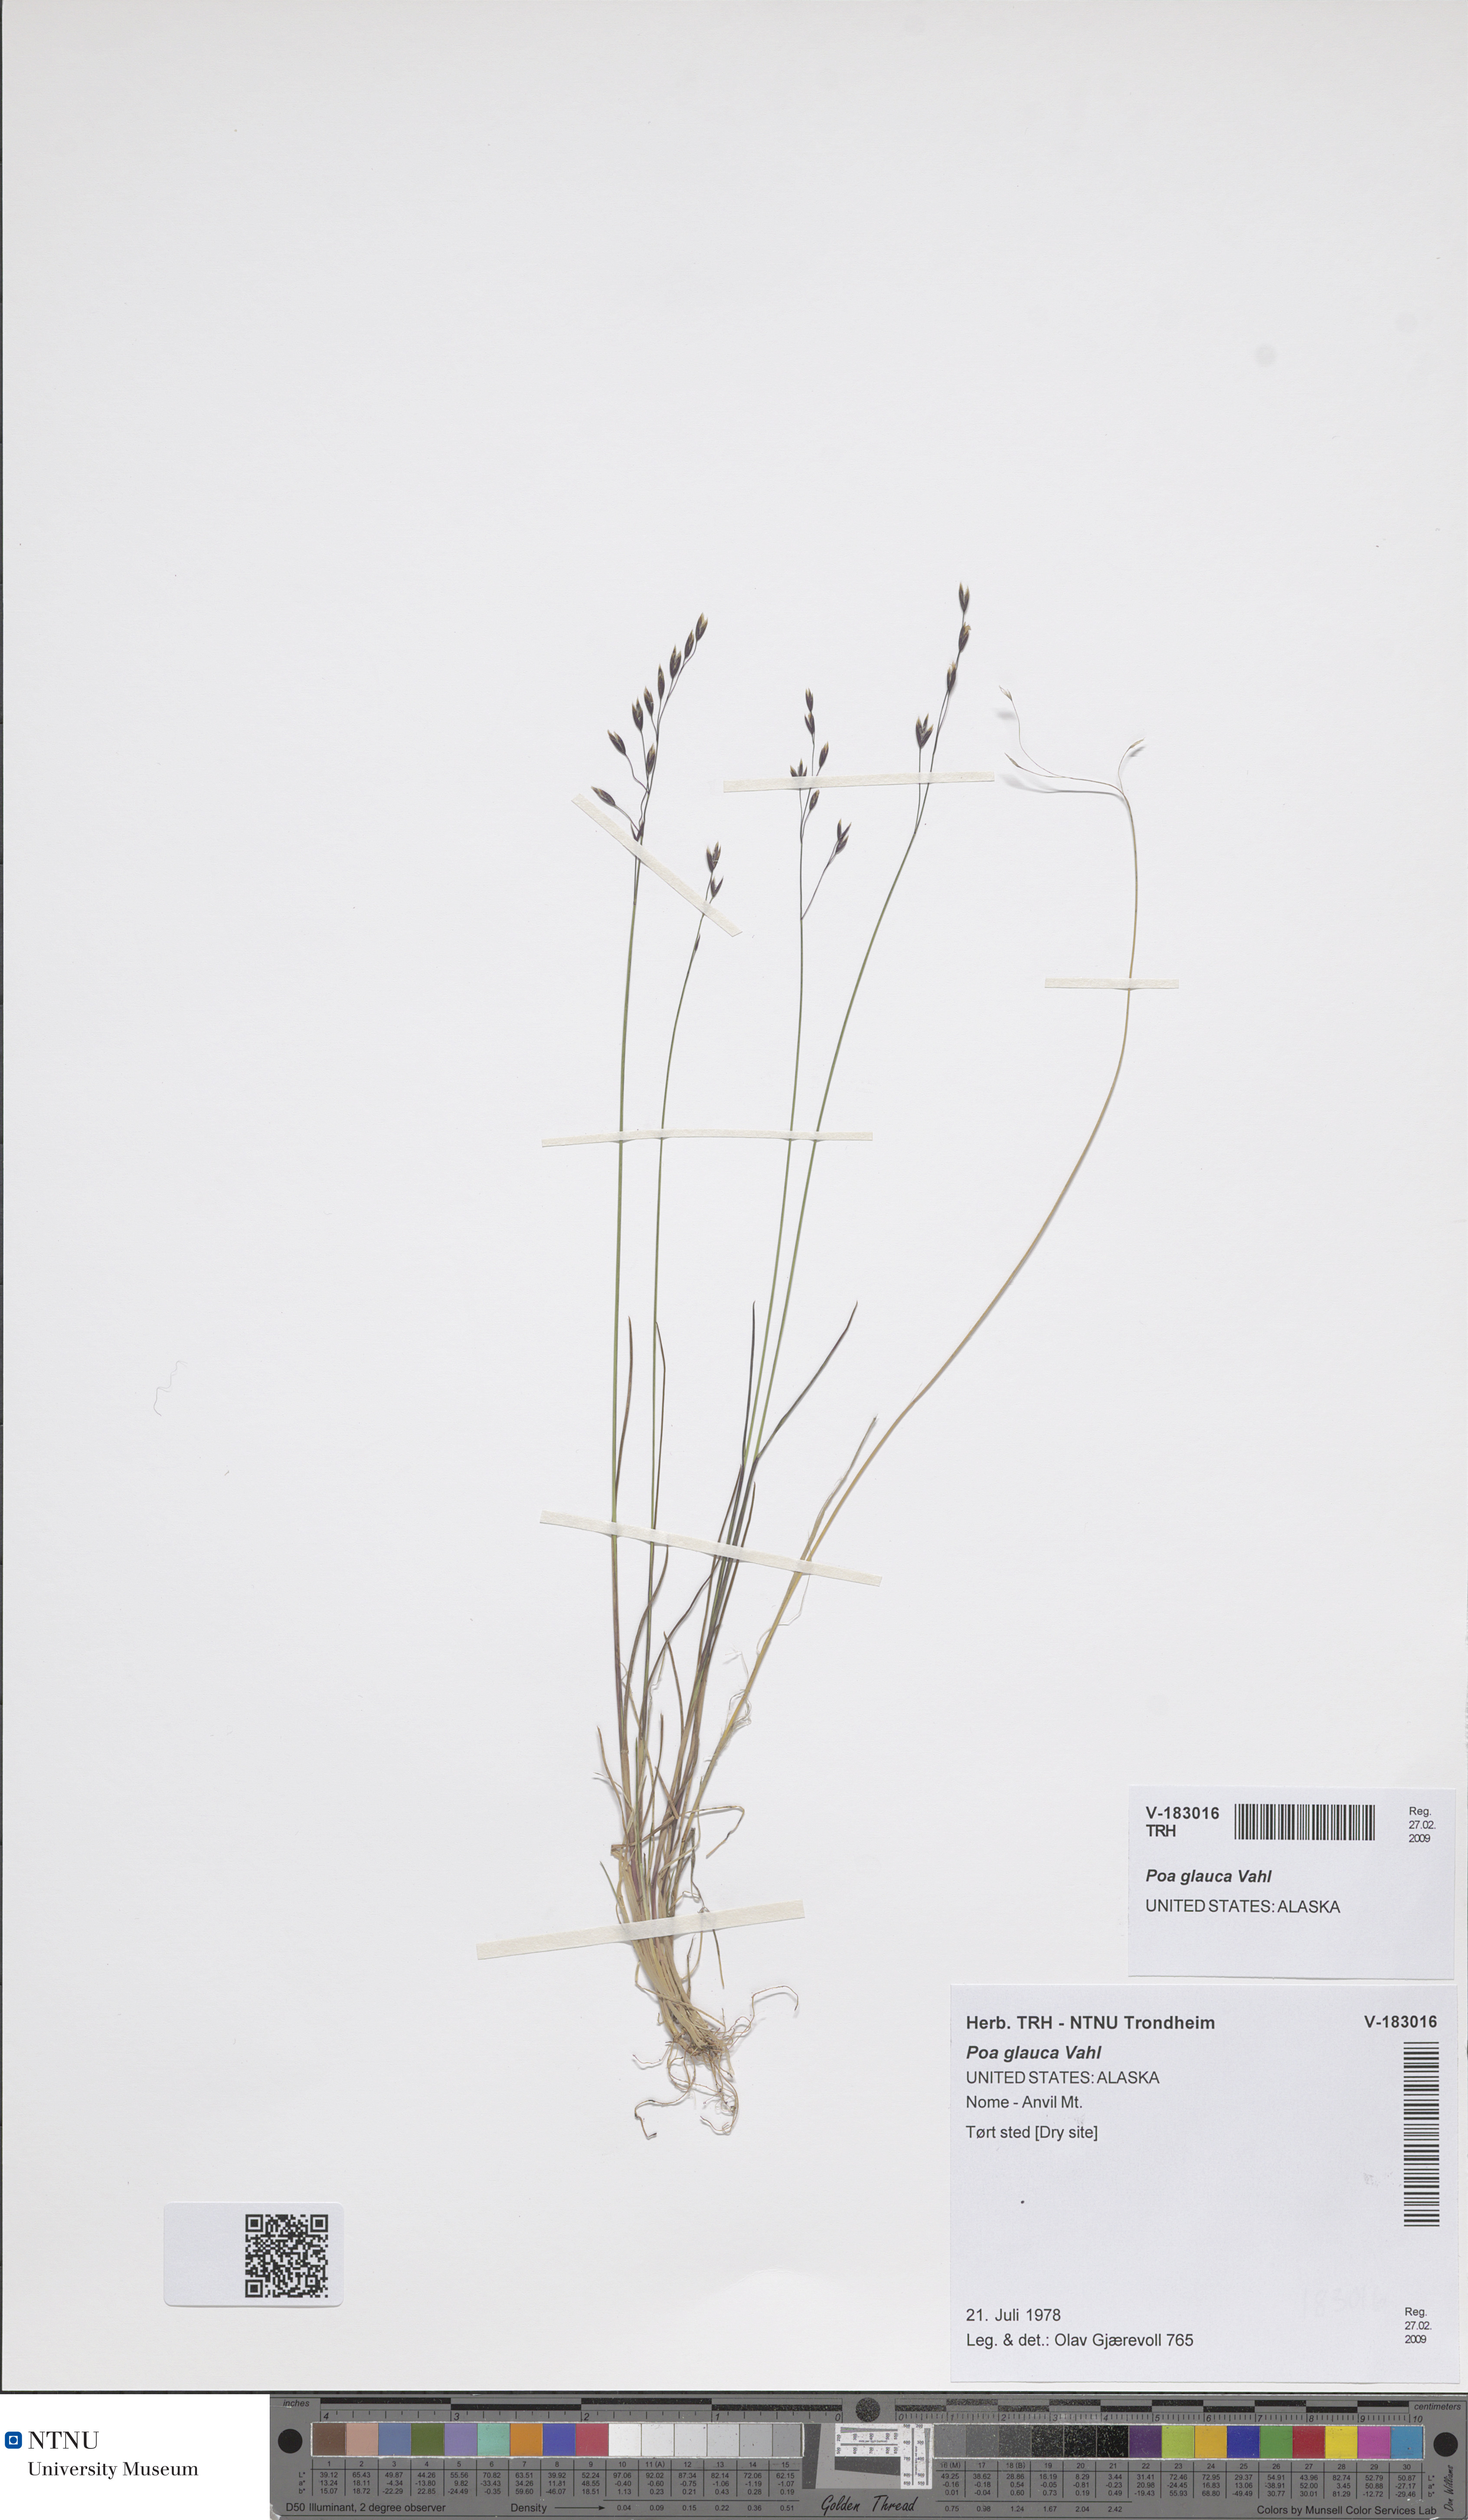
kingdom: Plantae
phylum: Tracheophyta
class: Liliopsida
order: Poales
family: Poaceae
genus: Poa
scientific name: Poa glauca
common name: Glaucous bluegrass
